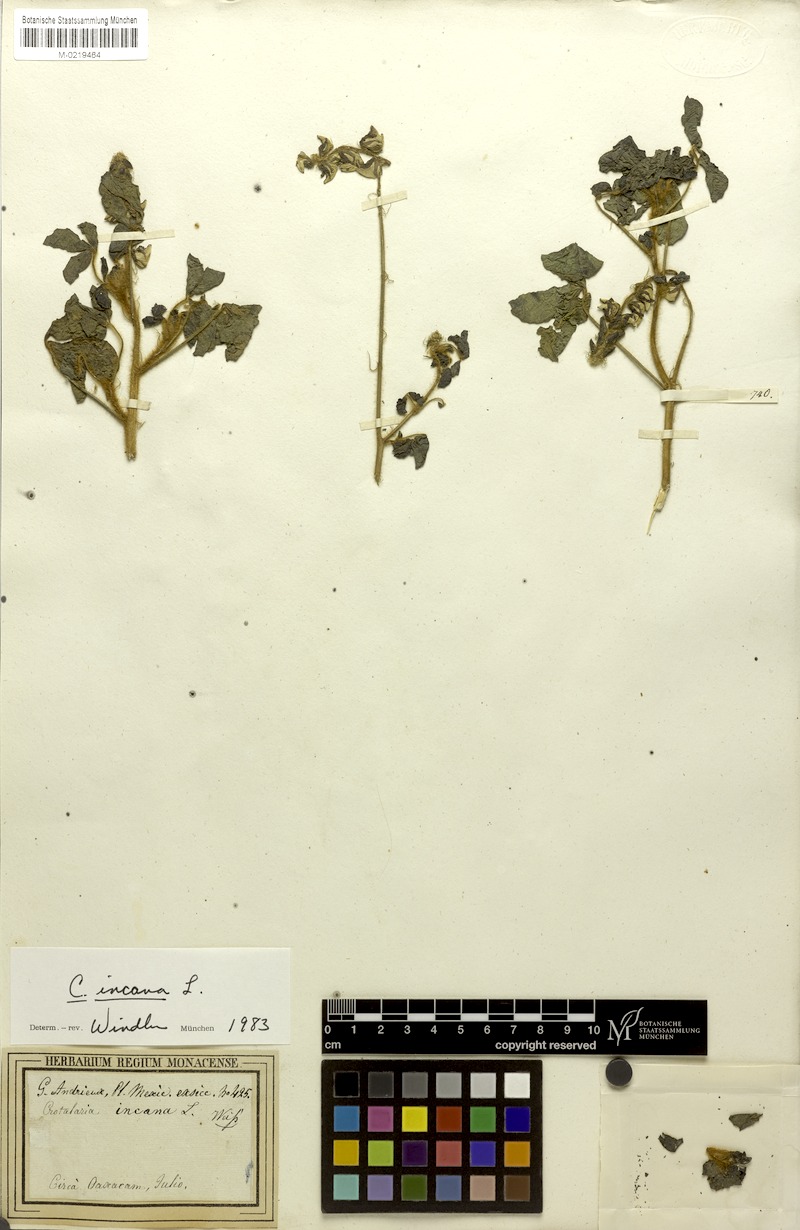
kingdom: Plantae
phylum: Tracheophyta
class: Magnoliopsida
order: Fabales
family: Fabaceae
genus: Crotalaria
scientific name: Crotalaria incana
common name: Shakeshake
